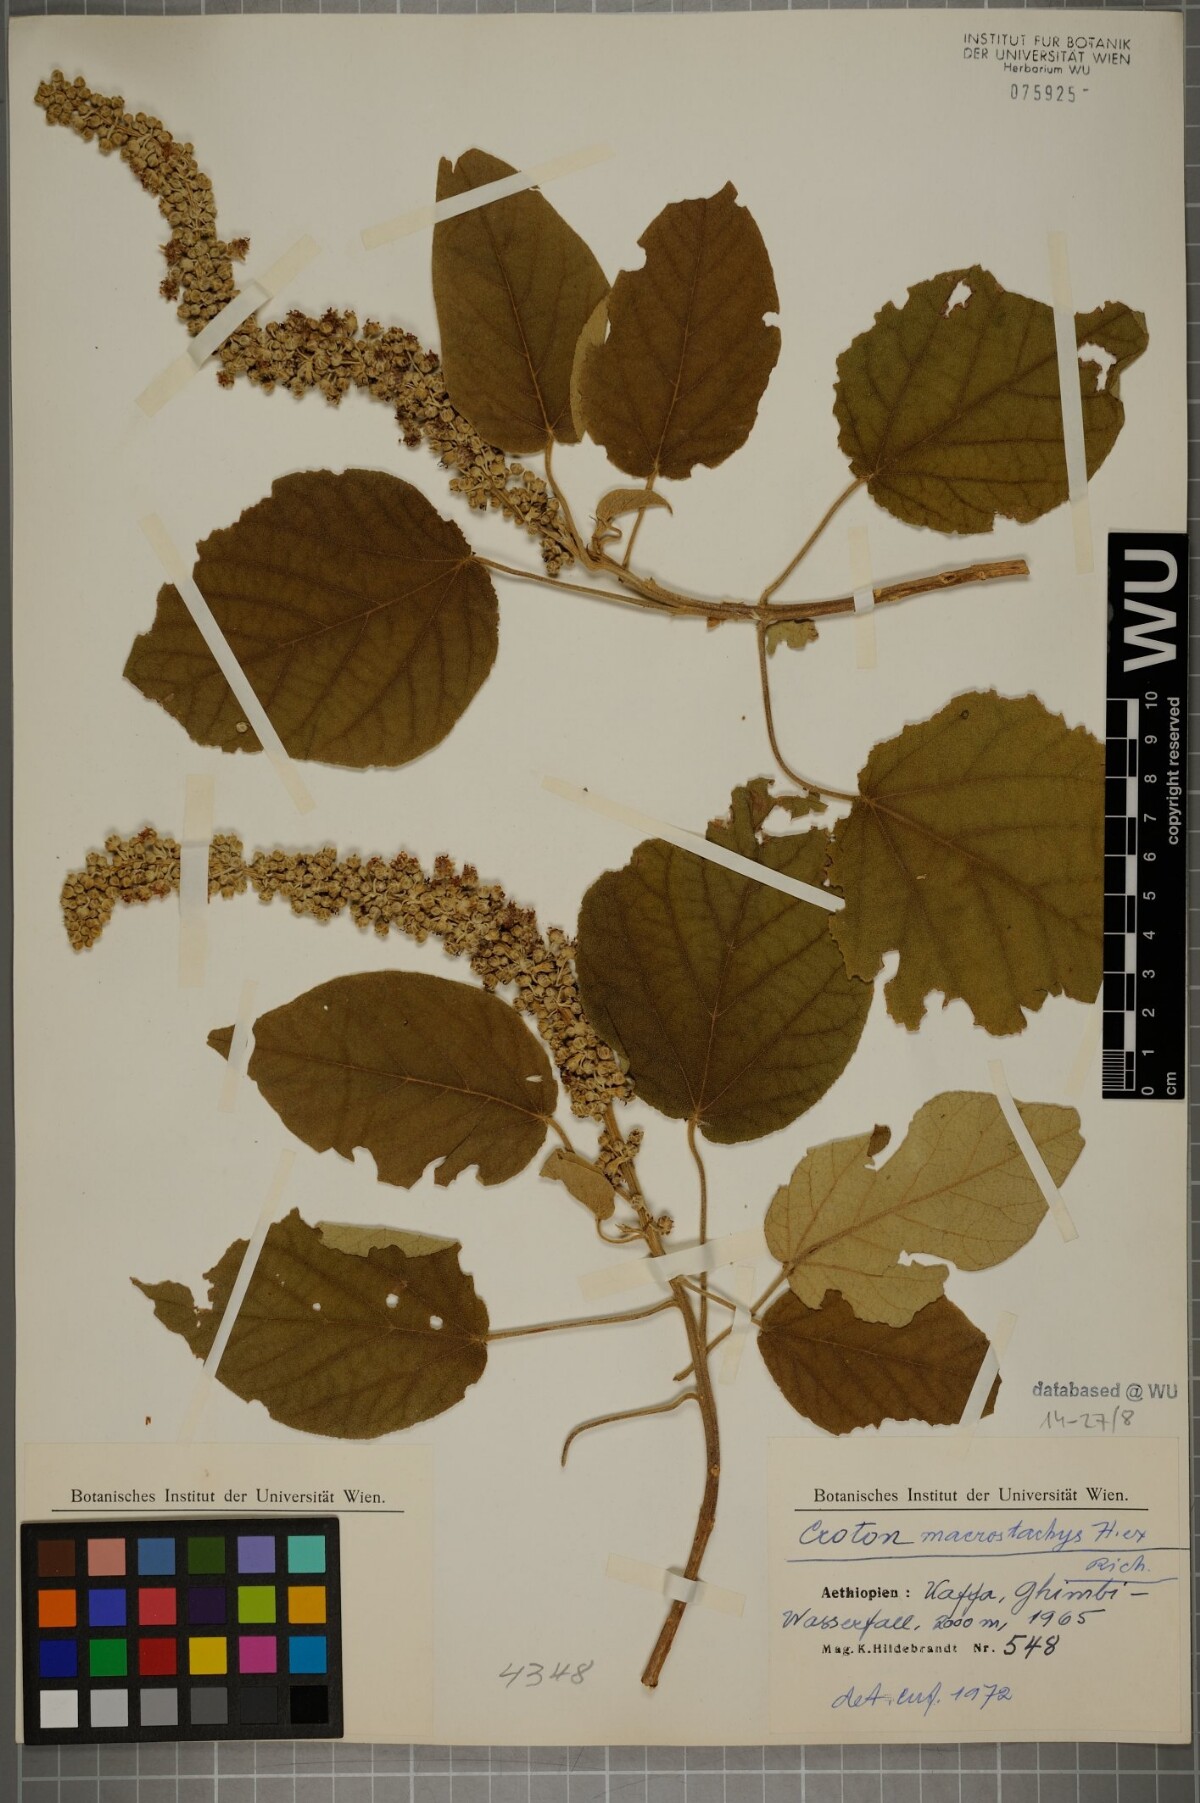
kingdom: Plantae
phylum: Tracheophyta
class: Magnoliopsida
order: Malpighiales
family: Euphorbiaceae
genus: Croton
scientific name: Croton macrostachys
